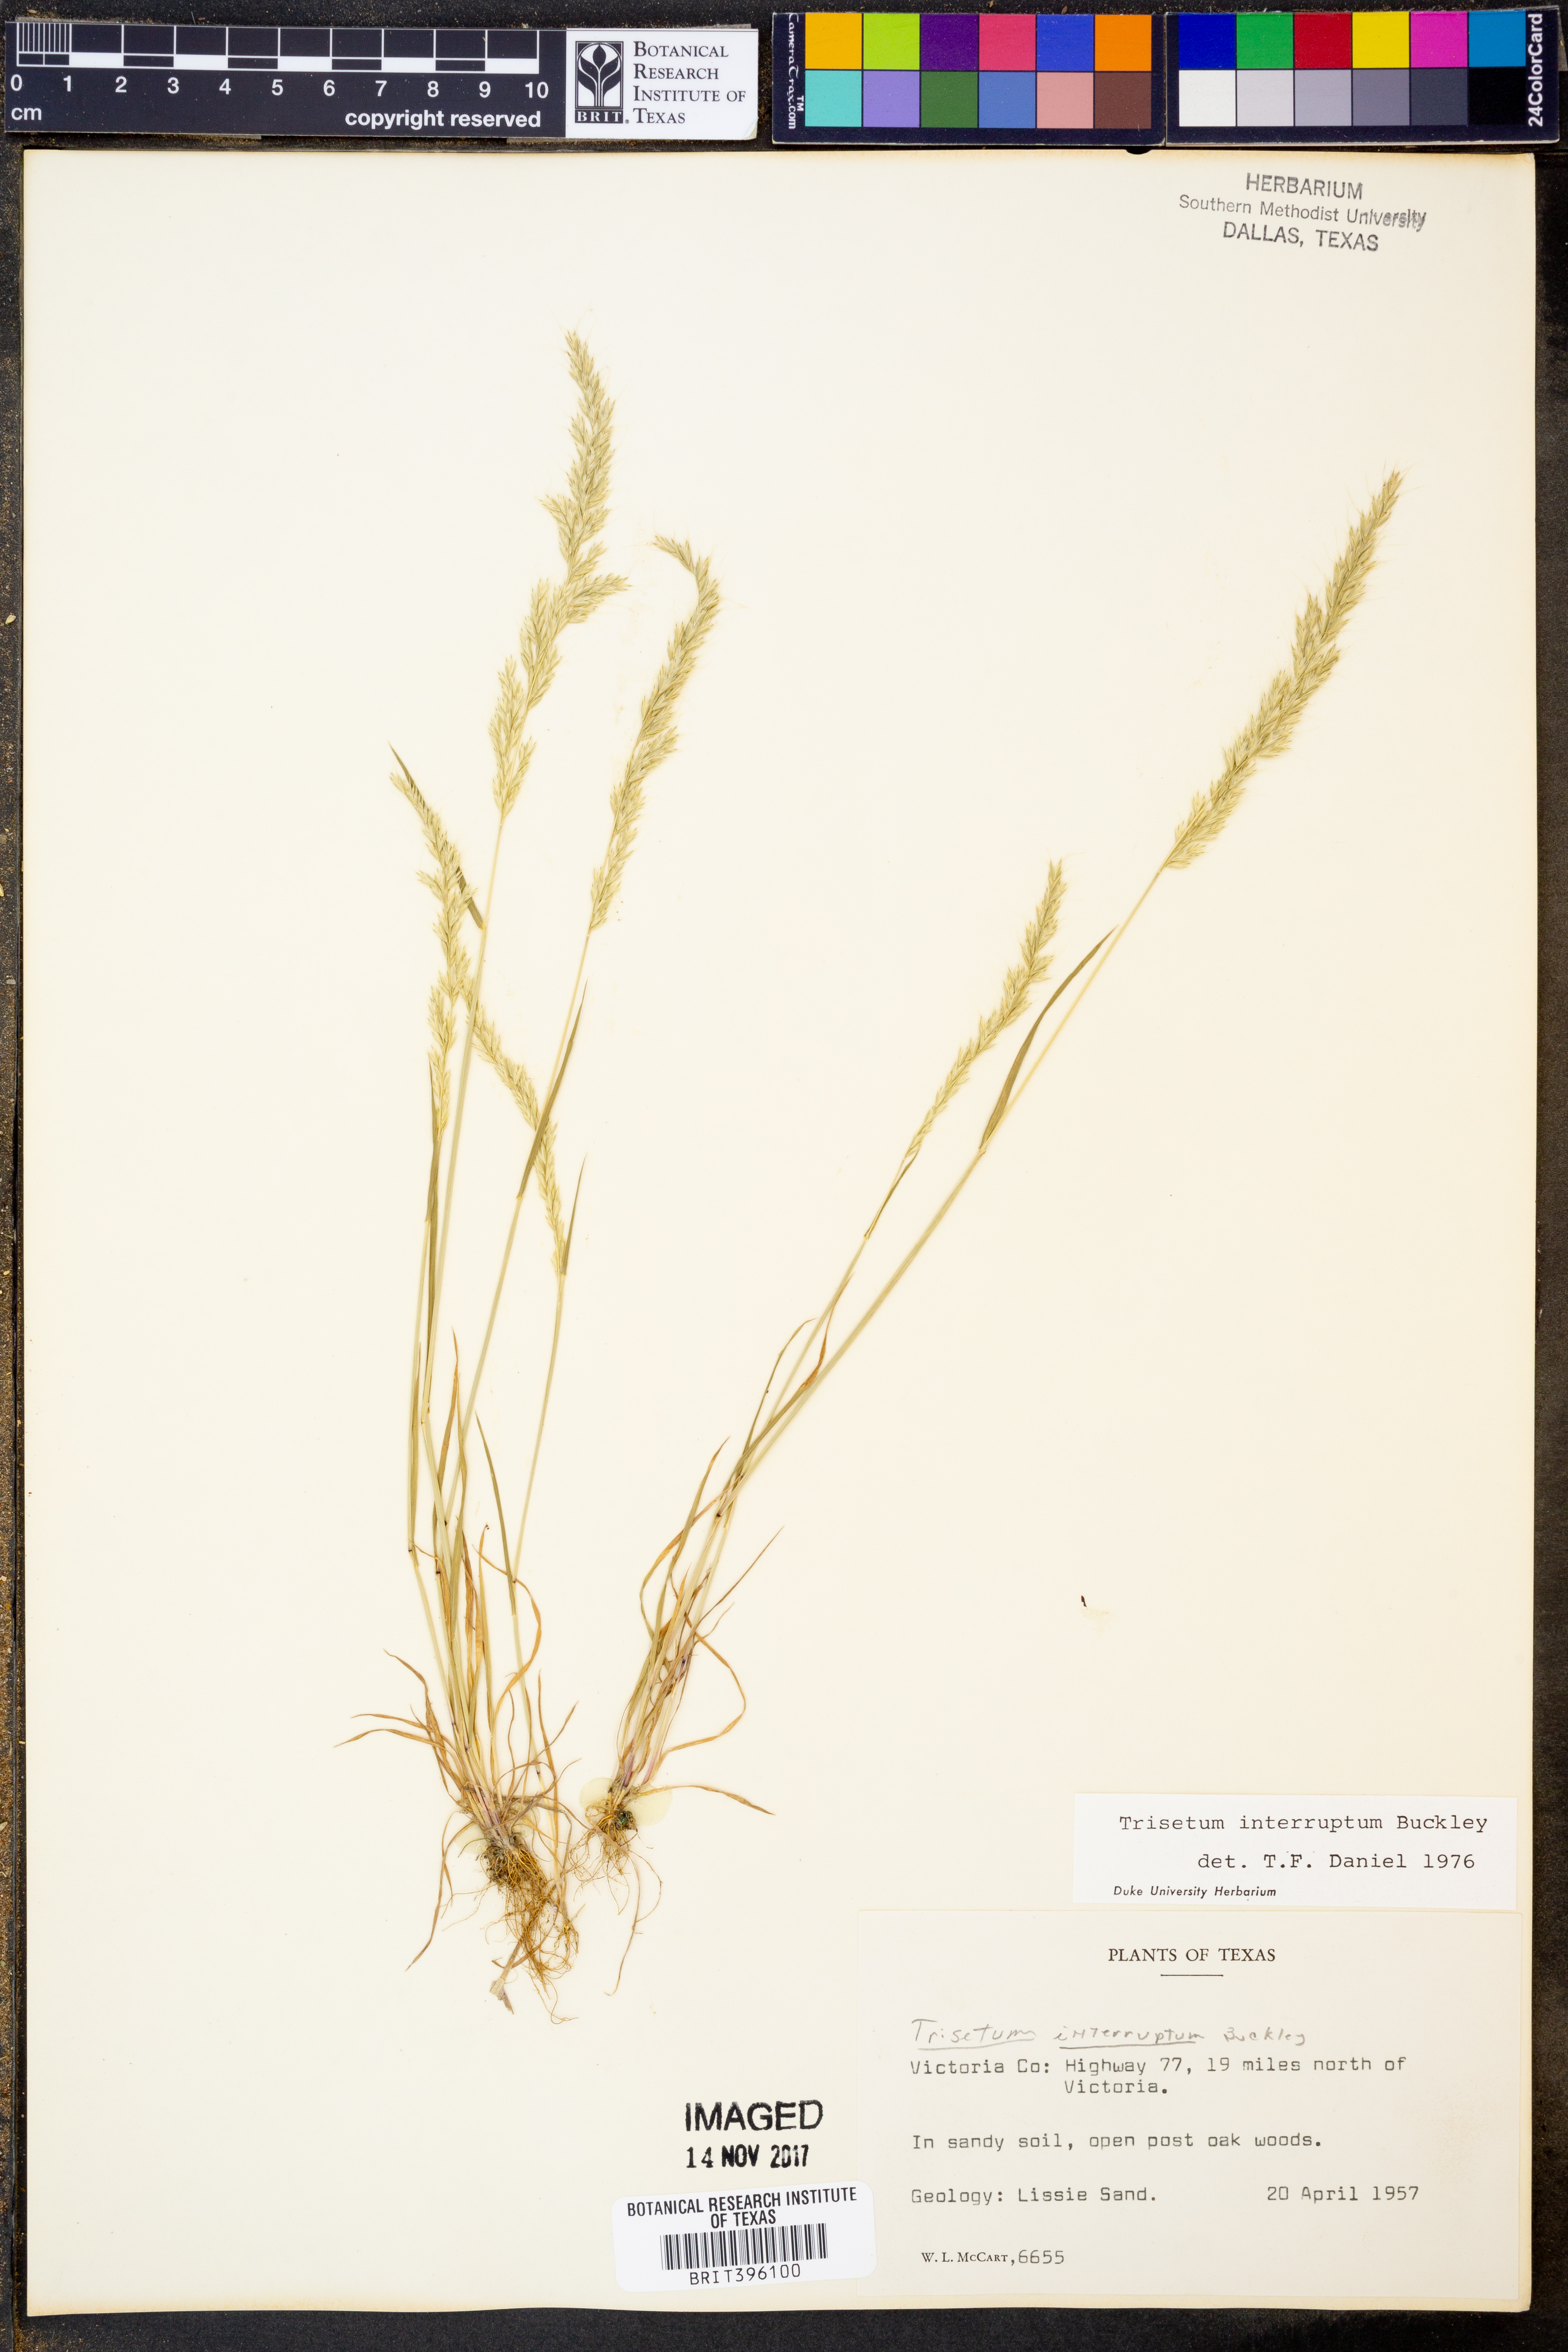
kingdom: Plantae
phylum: Tracheophyta
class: Liliopsida
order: Poales
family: Poaceae
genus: Sphenopholis
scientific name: Sphenopholis interrupta
